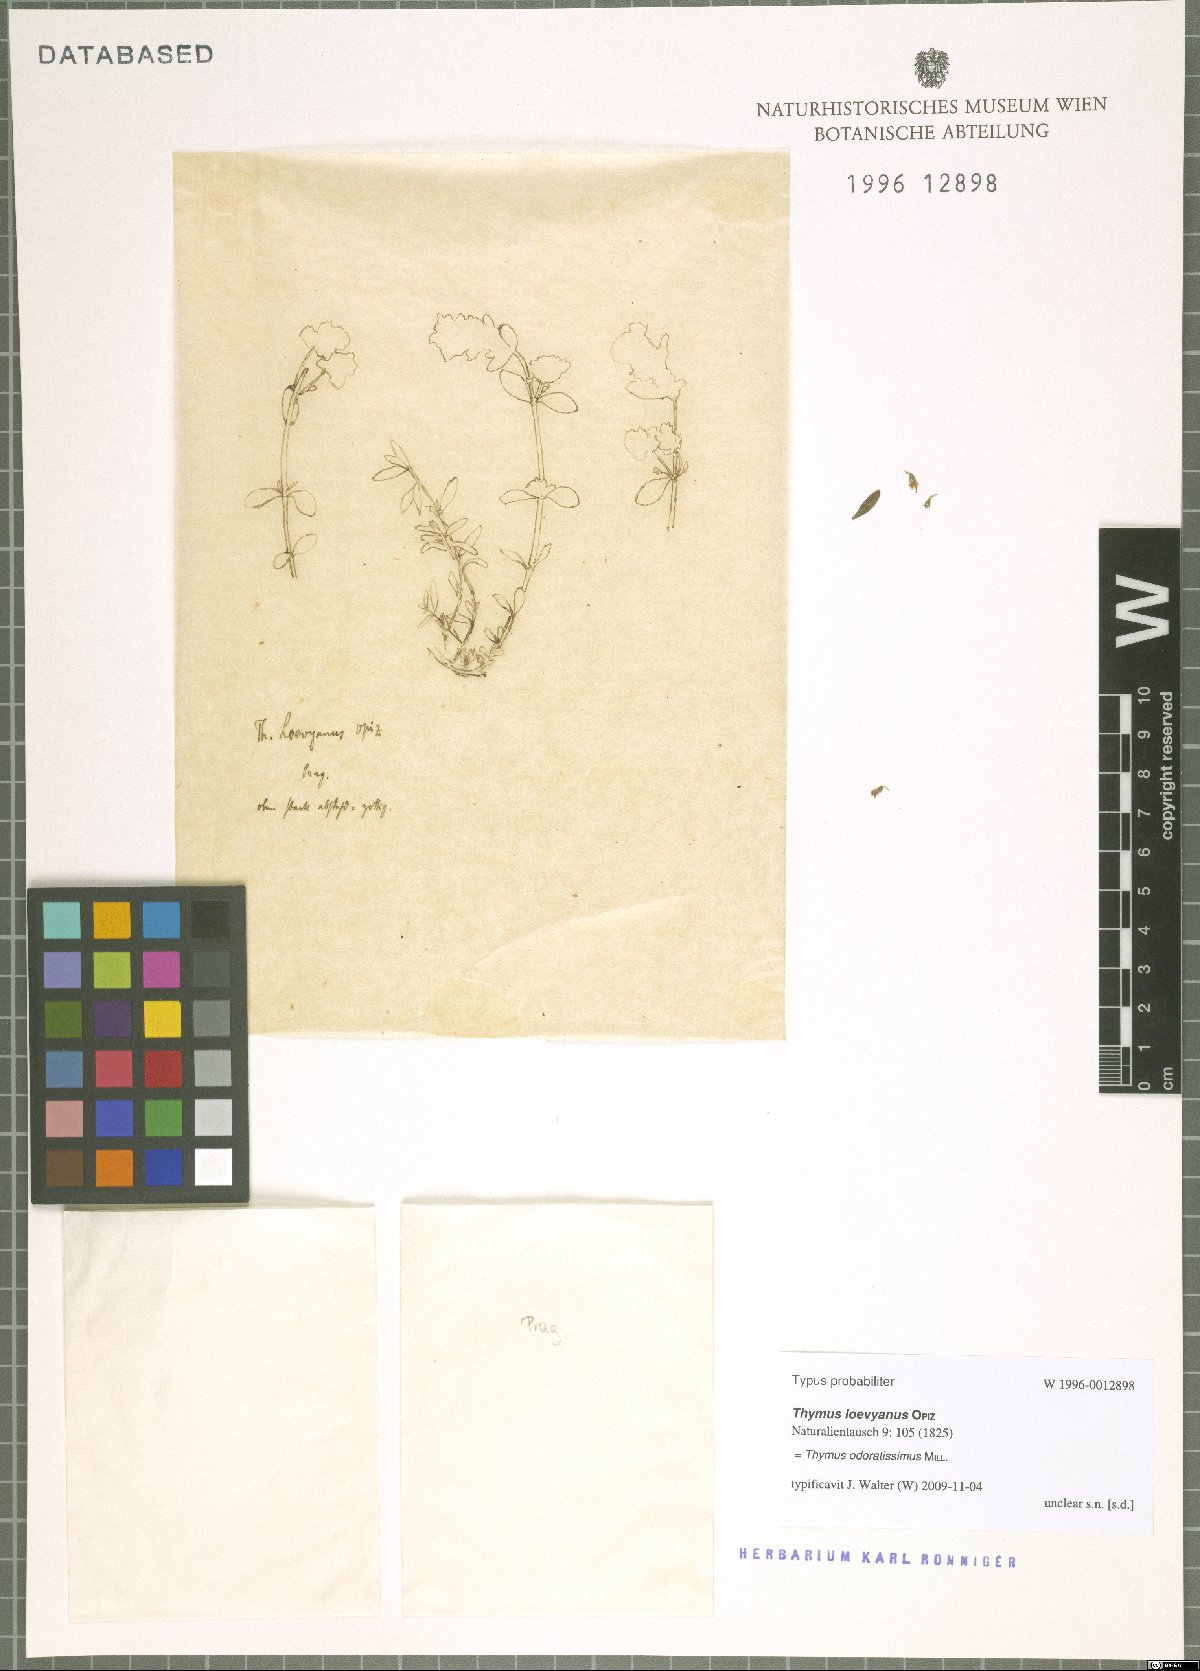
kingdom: Plantae
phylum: Tracheophyta
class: Magnoliopsida
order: Lamiales
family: Lamiaceae
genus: Thymus
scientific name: Thymus odoratissimus
